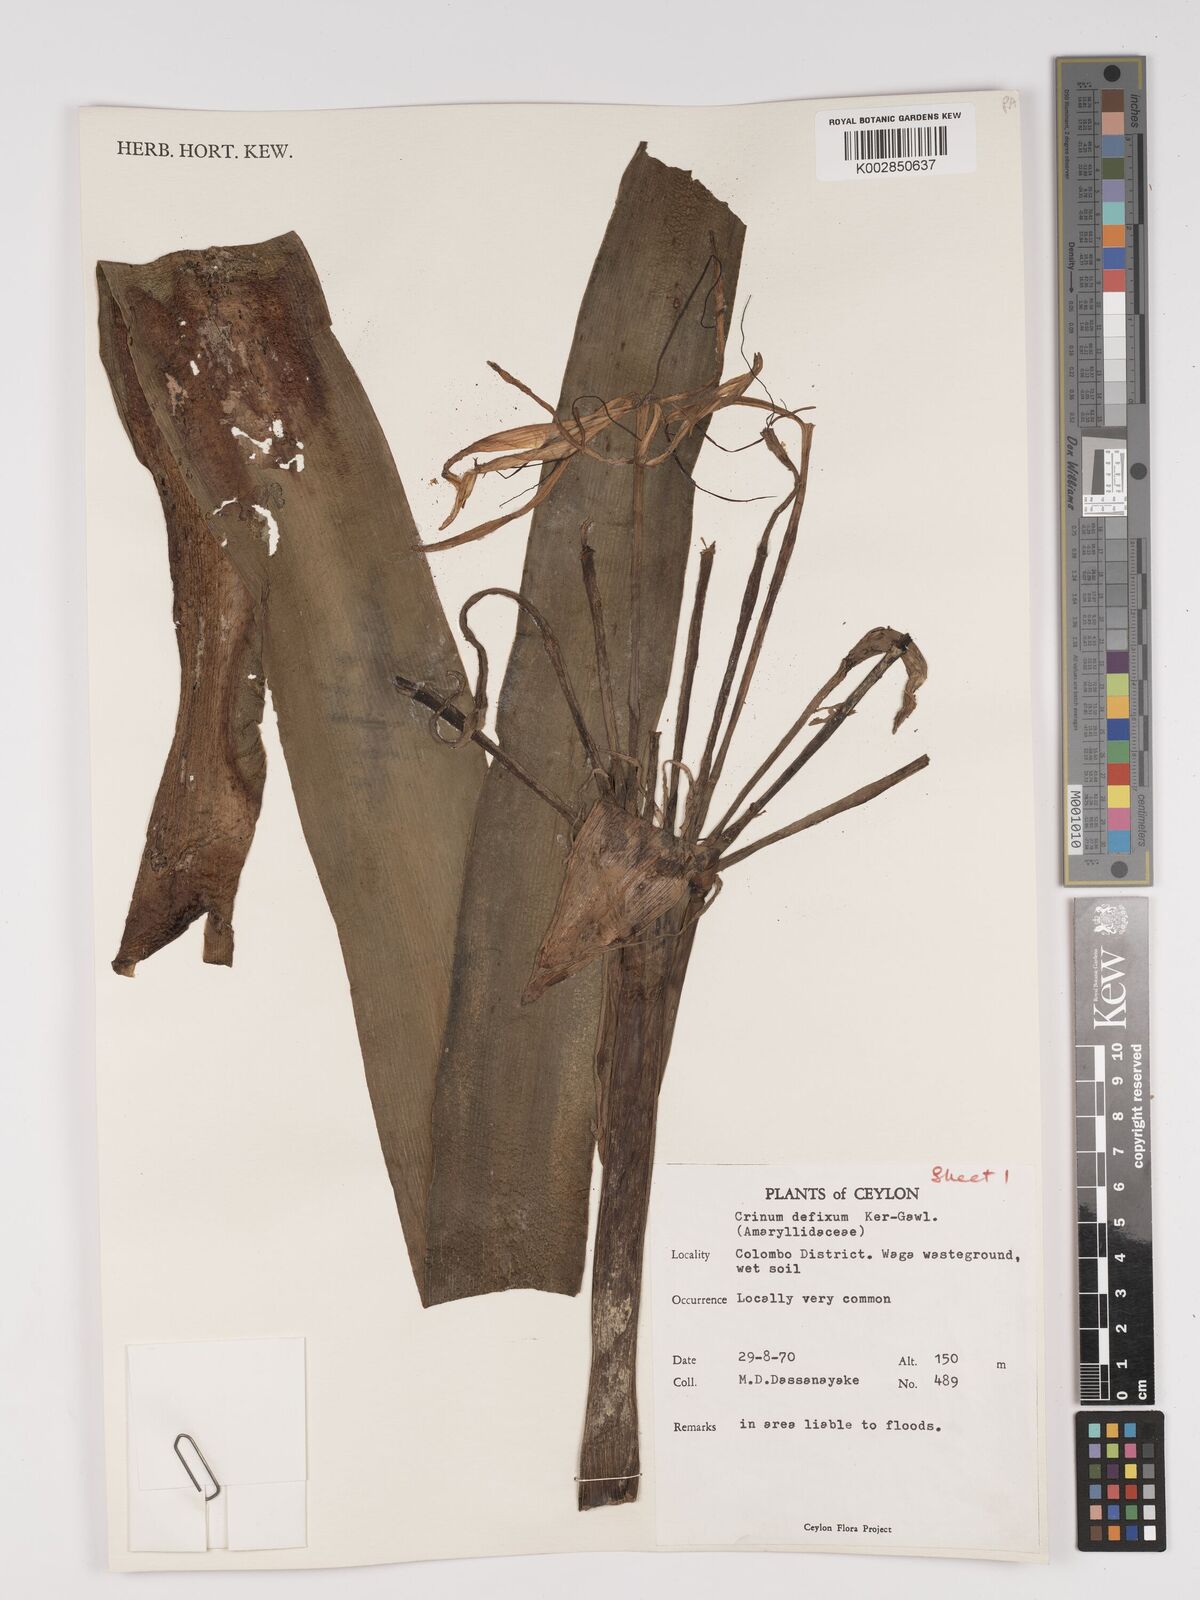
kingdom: Plantae
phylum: Tracheophyta
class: Liliopsida
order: Asparagales
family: Amaryllidaceae
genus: Crinum
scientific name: Crinum defixum
